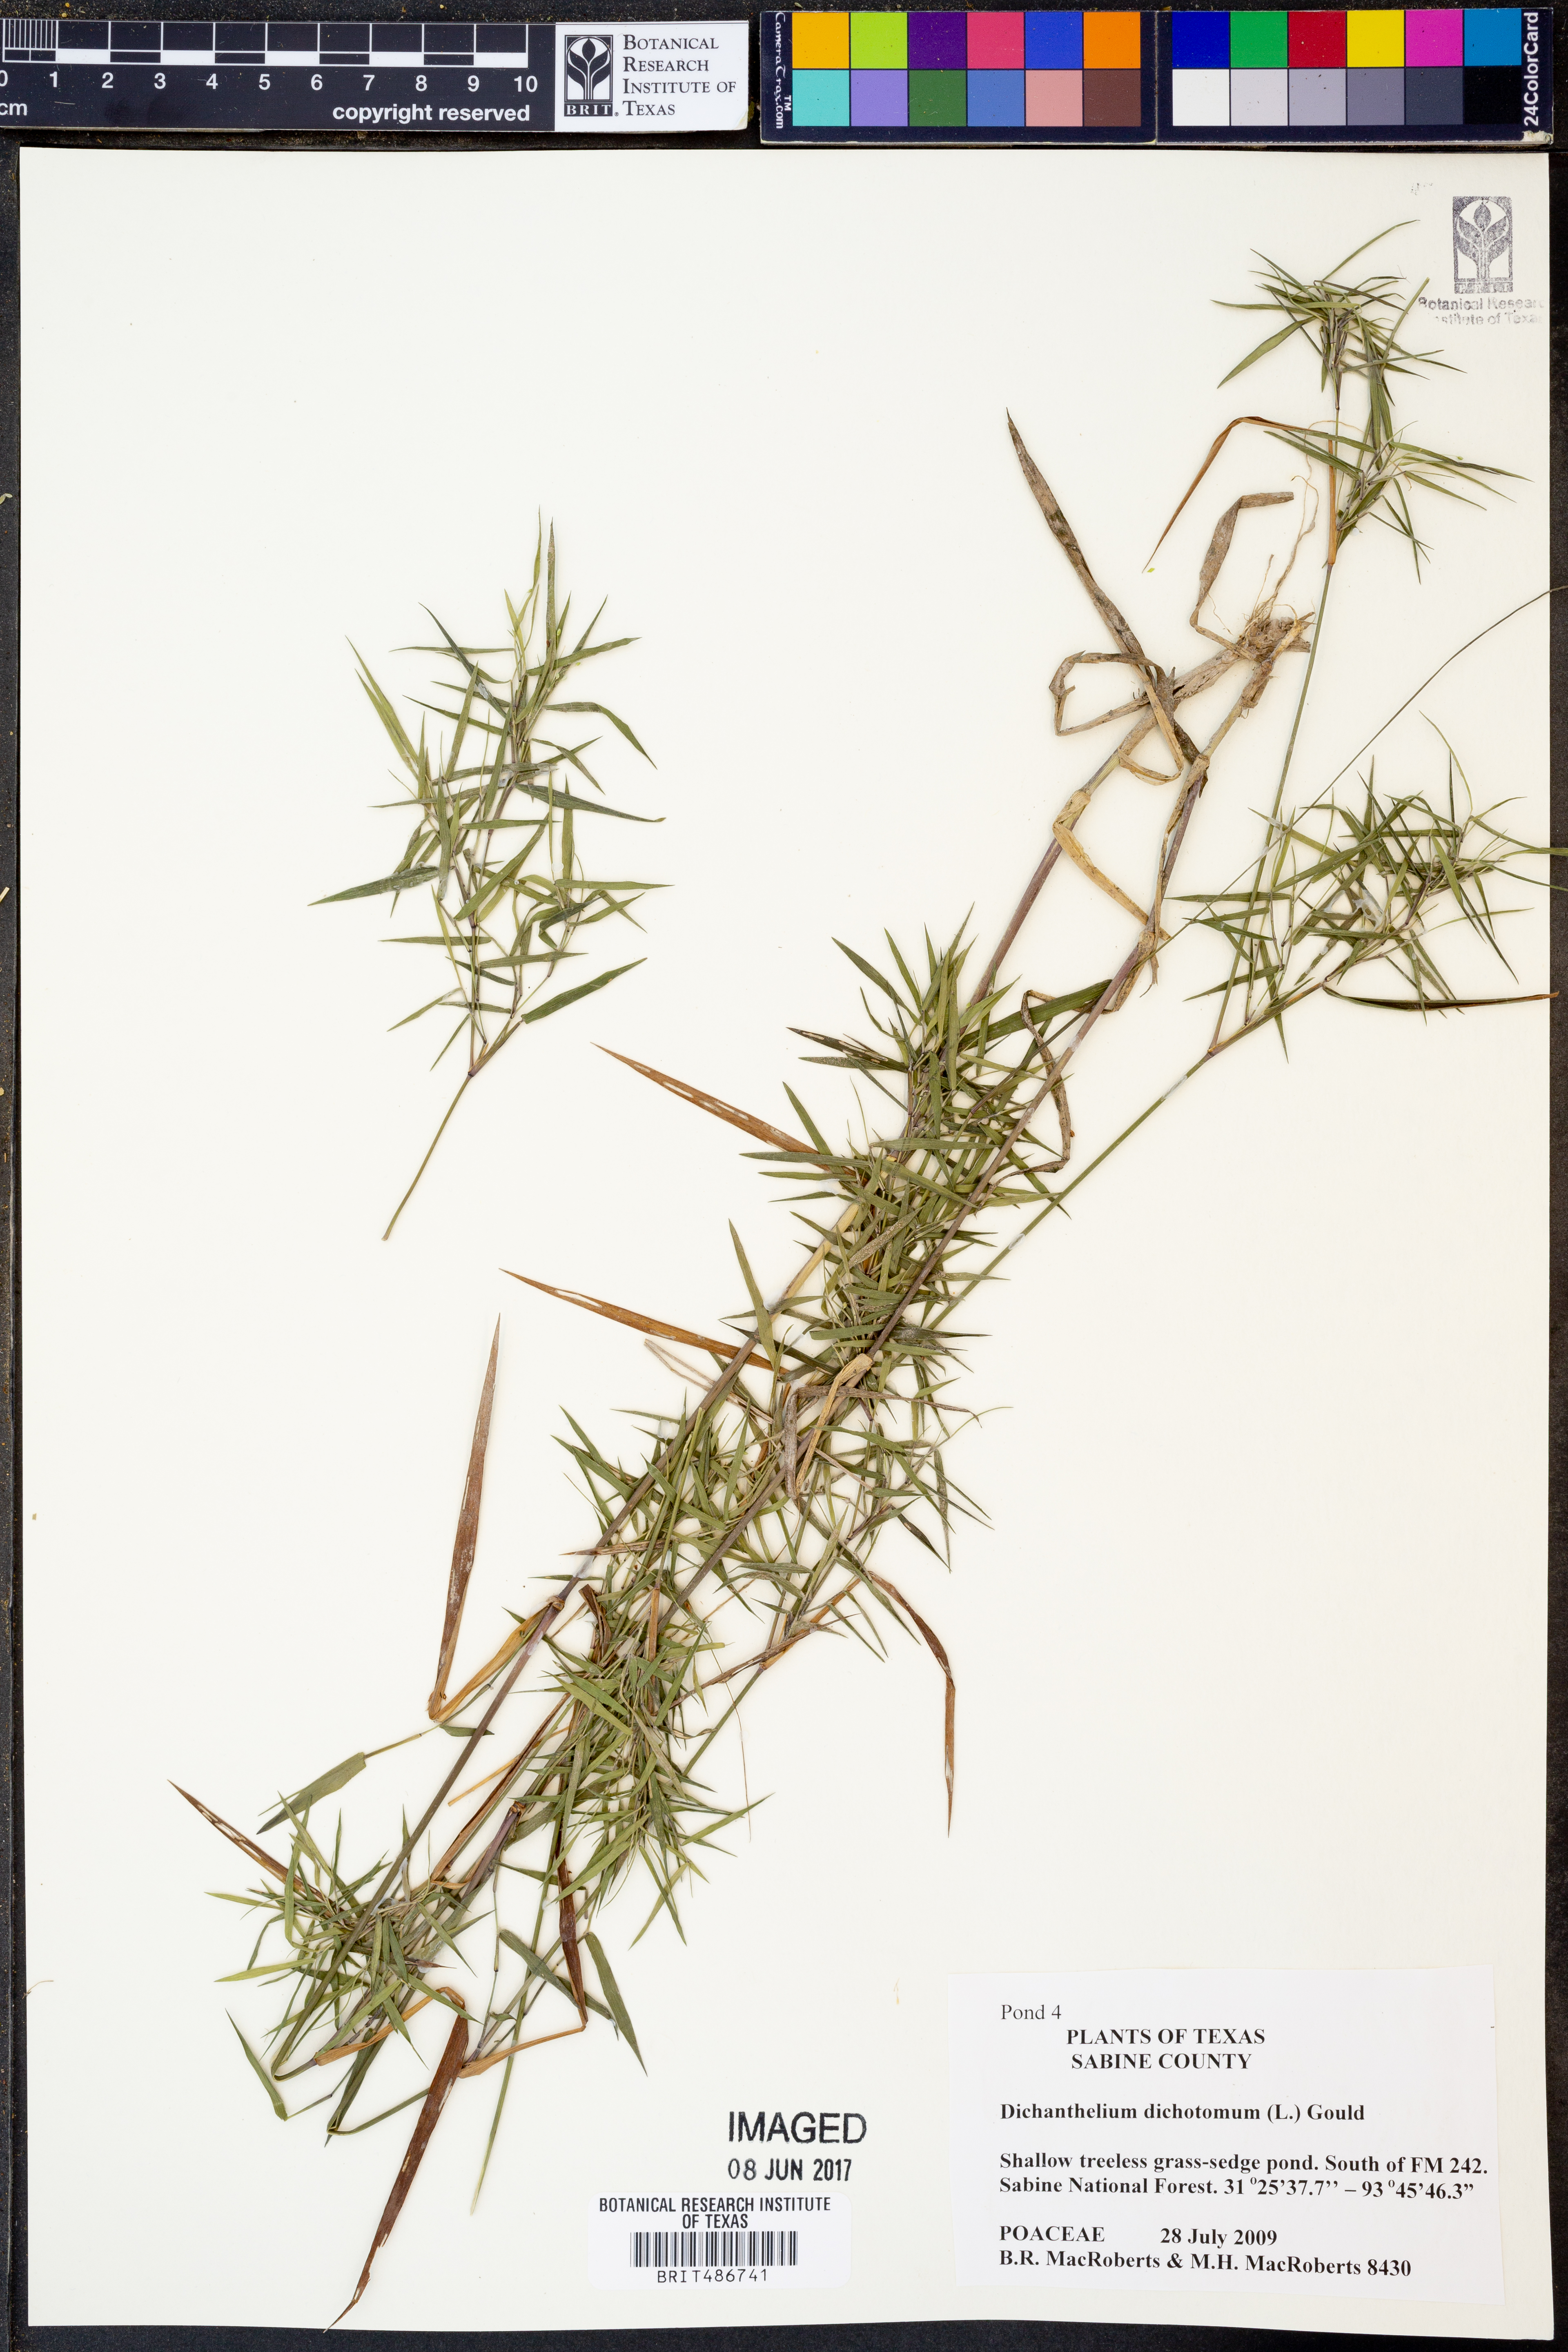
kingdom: Plantae
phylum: Tracheophyta
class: Liliopsida
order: Poales
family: Poaceae
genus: Dichanthelium
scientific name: Dichanthelium dichotomum
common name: Cypress panicgrass
